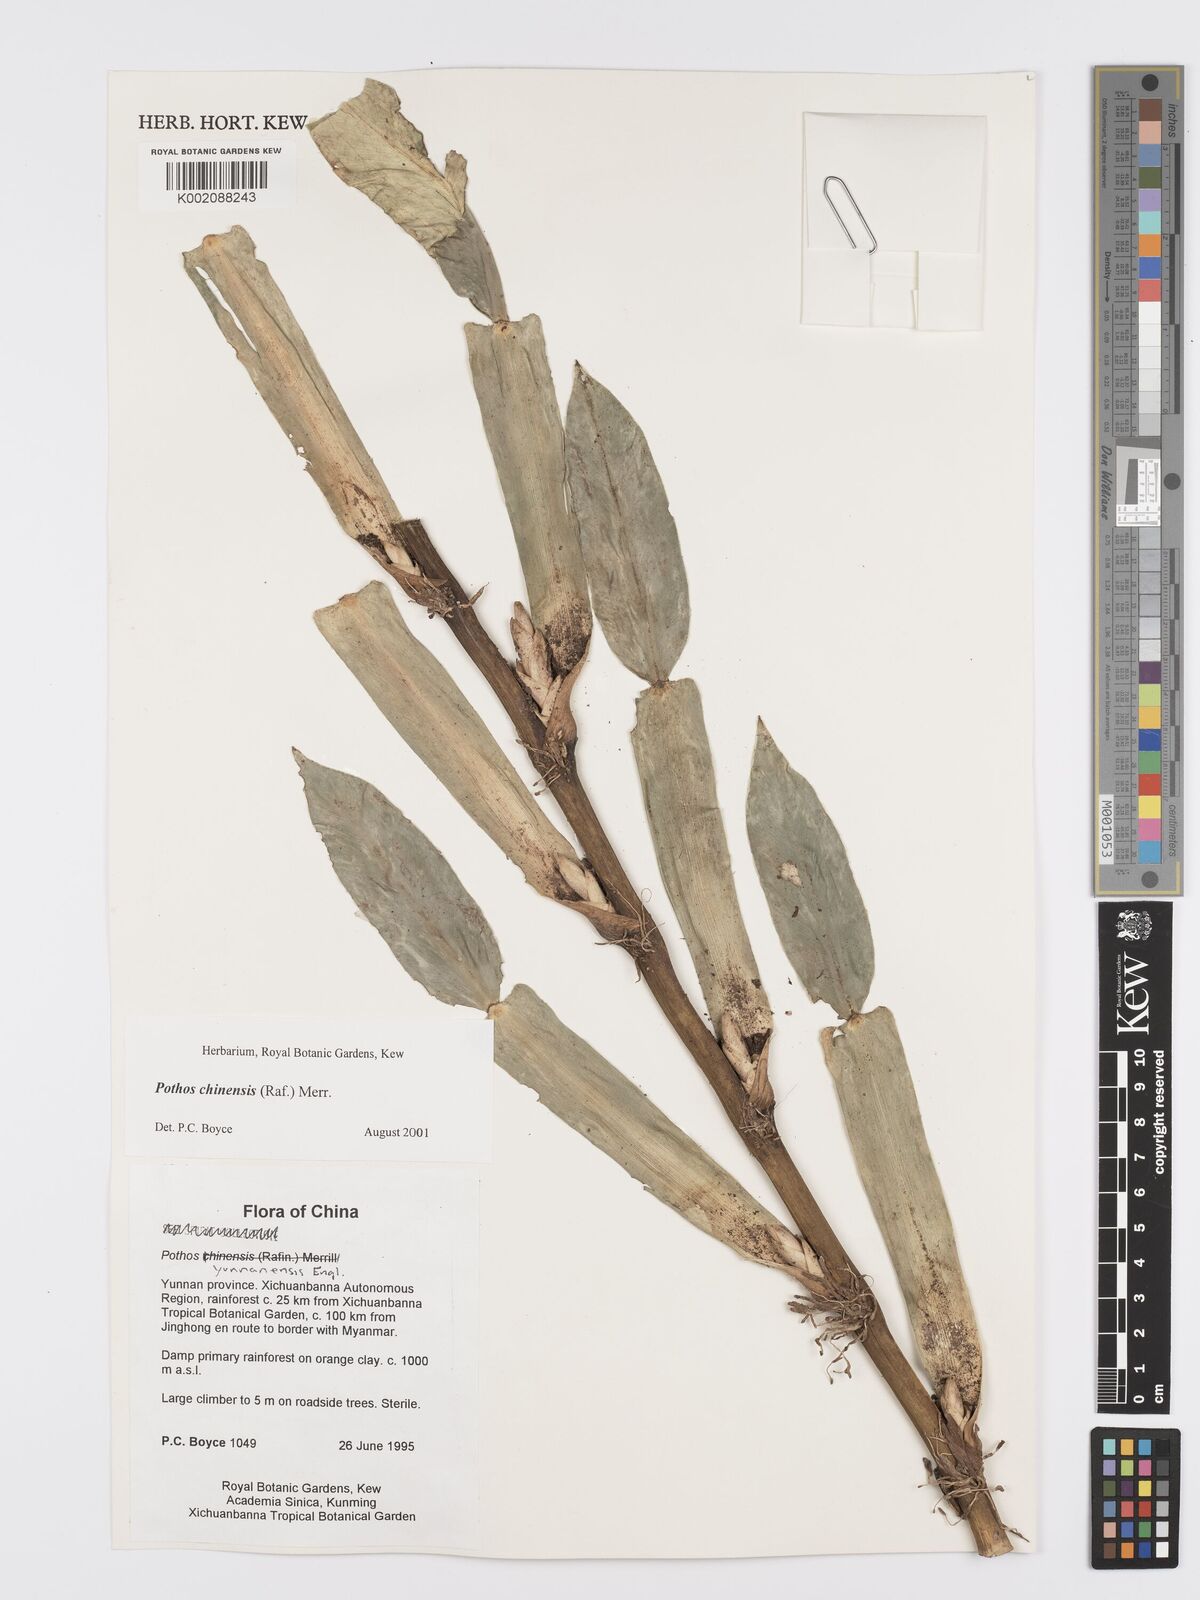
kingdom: Plantae
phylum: Tracheophyta
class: Liliopsida
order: Alismatales
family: Araceae
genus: Pothos
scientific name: Pothos chinensis
